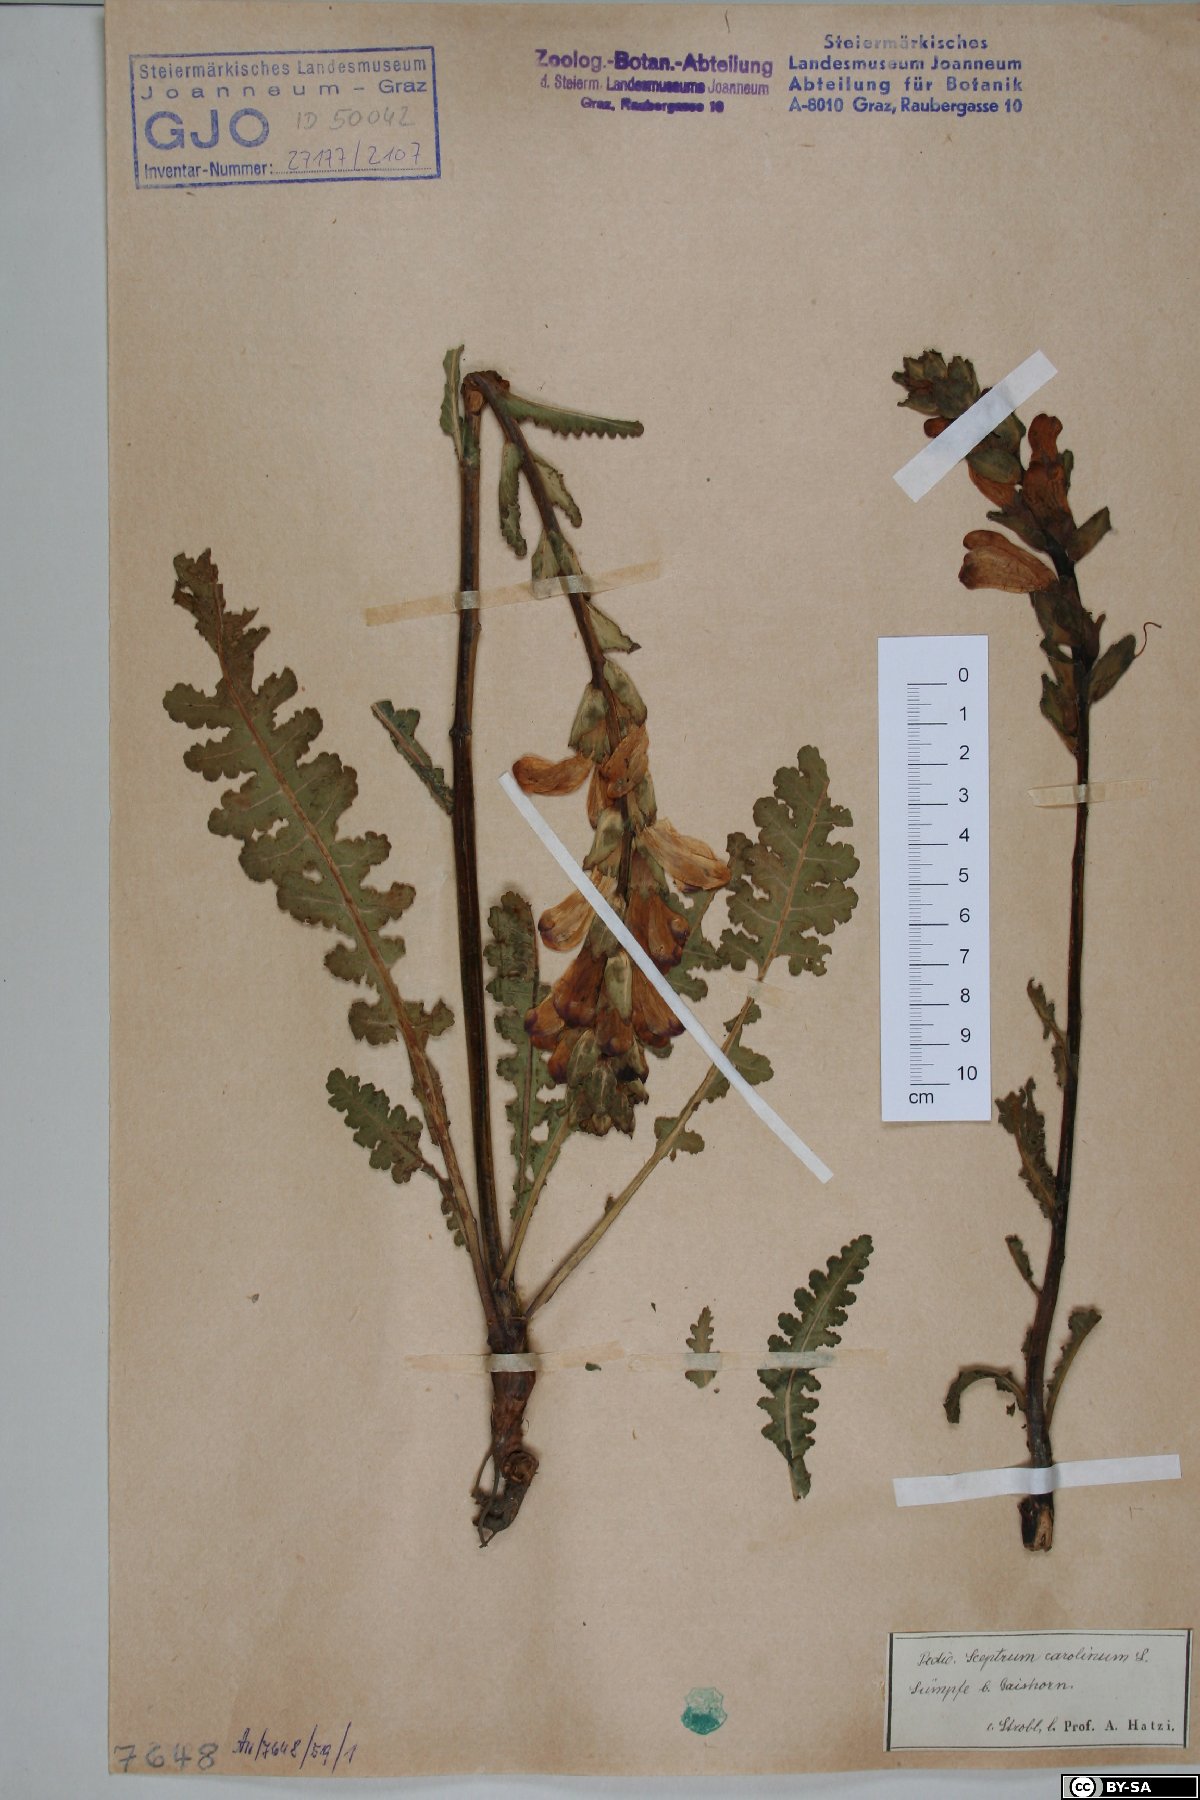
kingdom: Plantae
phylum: Tracheophyta
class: Magnoliopsida
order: Lamiales
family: Orobanchaceae
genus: Pedicularis
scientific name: Pedicularis sceptrum-carolinum
